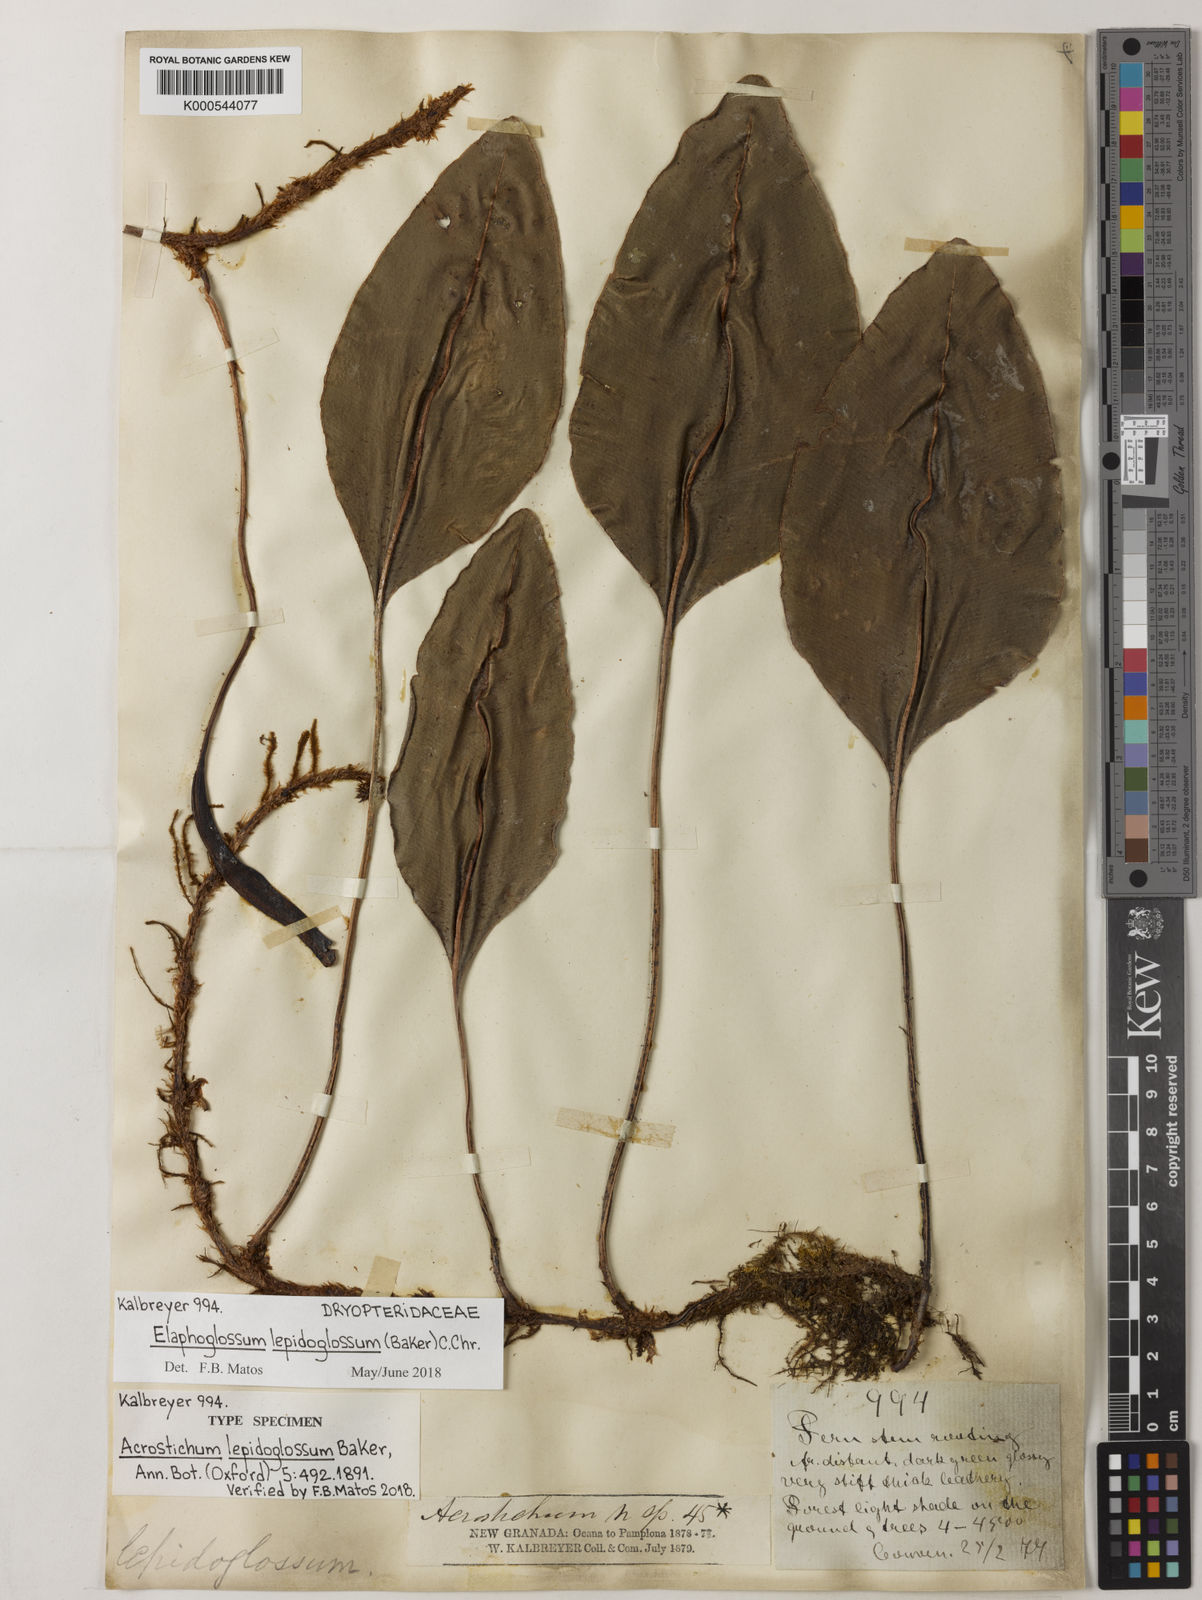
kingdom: Plantae
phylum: Tracheophyta
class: Polypodiopsida
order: Polypodiales
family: Dryopteridaceae
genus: Elaphoglossum
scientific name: Elaphoglossum lepidoglossum
